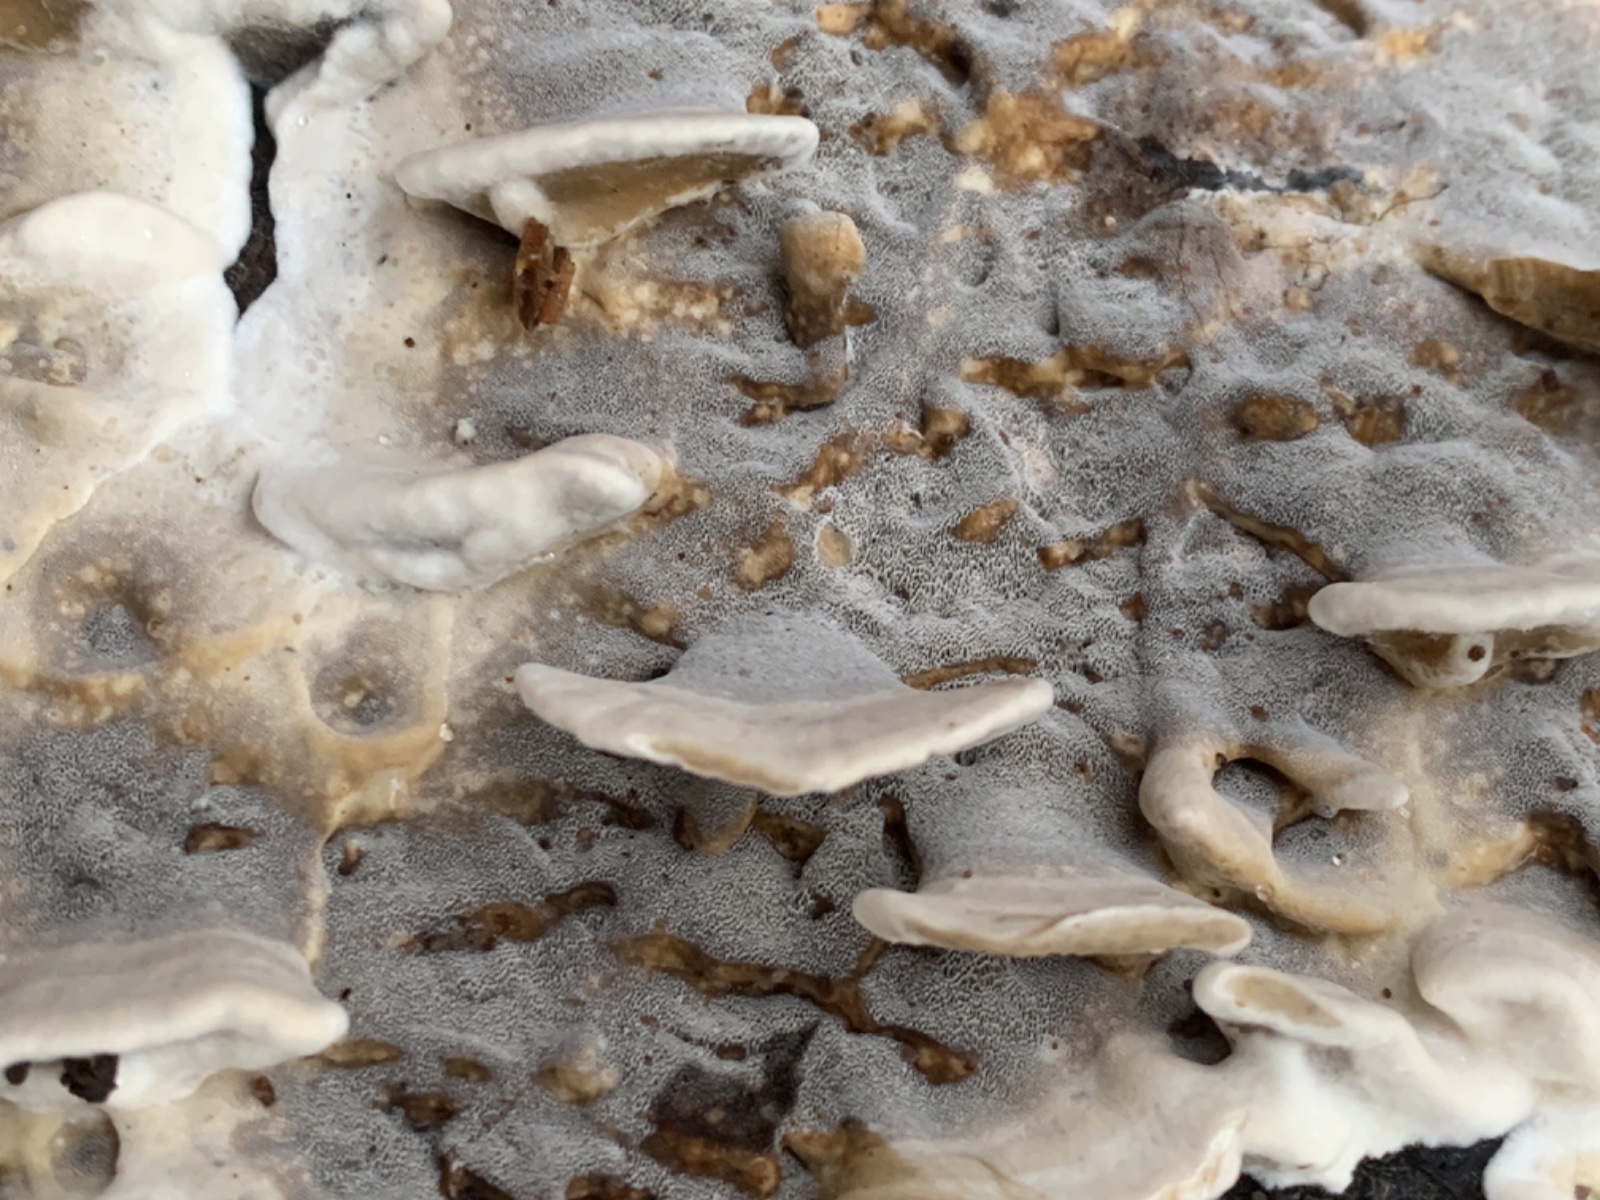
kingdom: Fungi
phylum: Basidiomycota
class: Agaricomycetes
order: Polyporales
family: Phanerochaetaceae
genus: Bjerkandera
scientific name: Bjerkandera adusta
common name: sveden sodporesvamp
